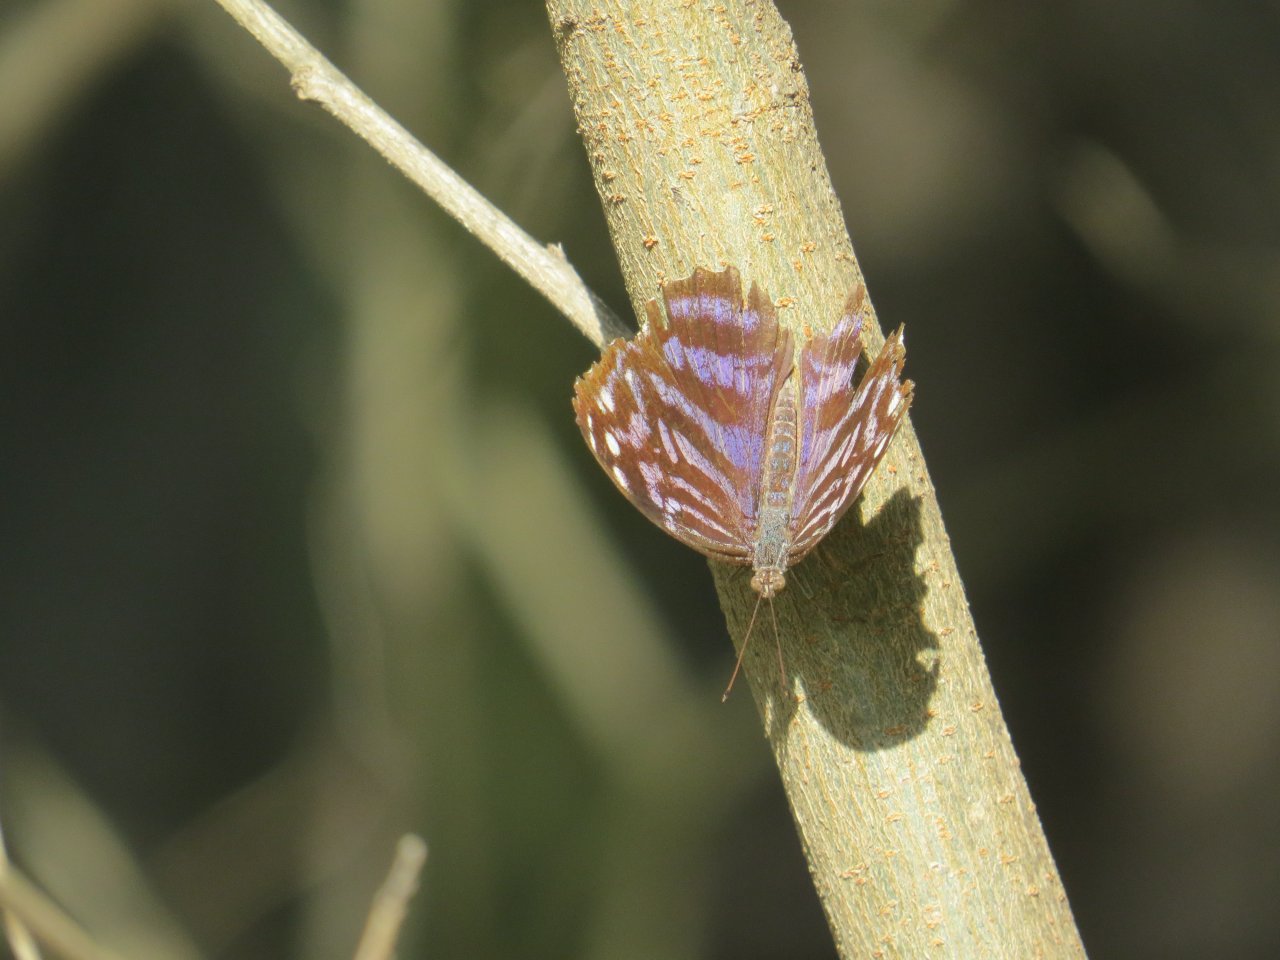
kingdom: Animalia
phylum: Arthropoda
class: Insecta
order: Lepidoptera
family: Nymphalidae
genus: Myscelia
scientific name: Myscelia ethusa
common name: Mexican Bluewing
